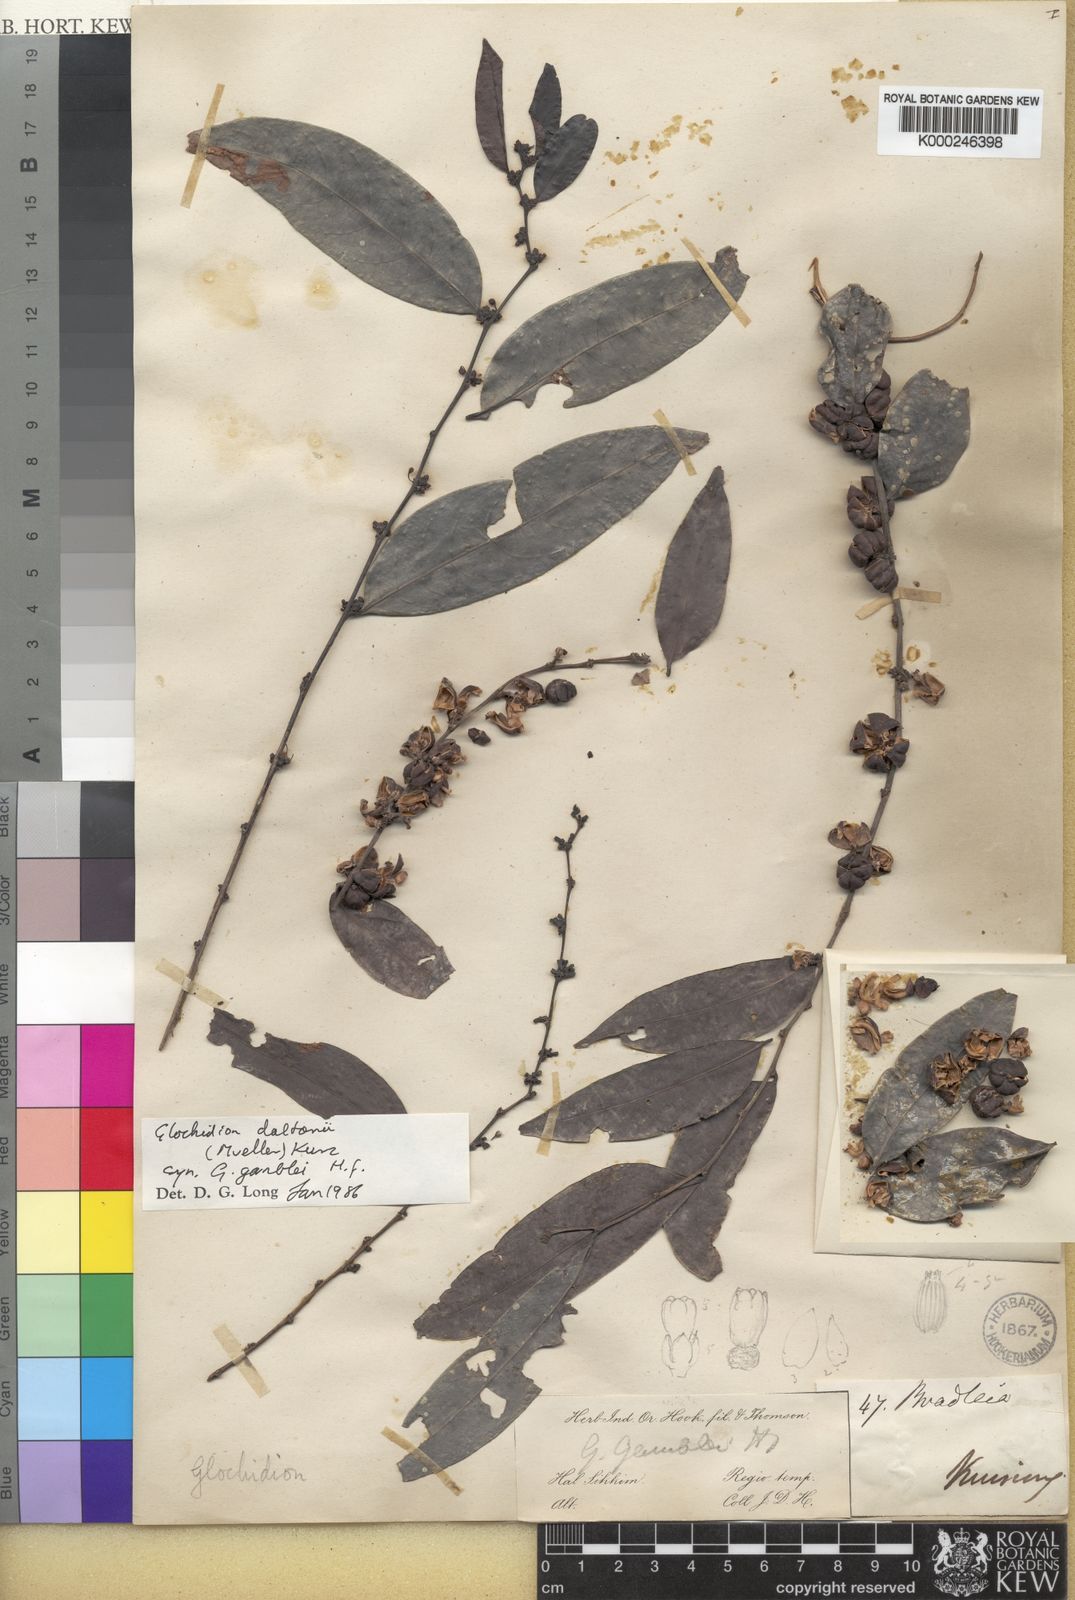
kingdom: Plantae
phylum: Tracheophyta
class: Magnoliopsida
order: Malpighiales
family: Phyllanthaceae
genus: Glochidion
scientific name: Glochidion
